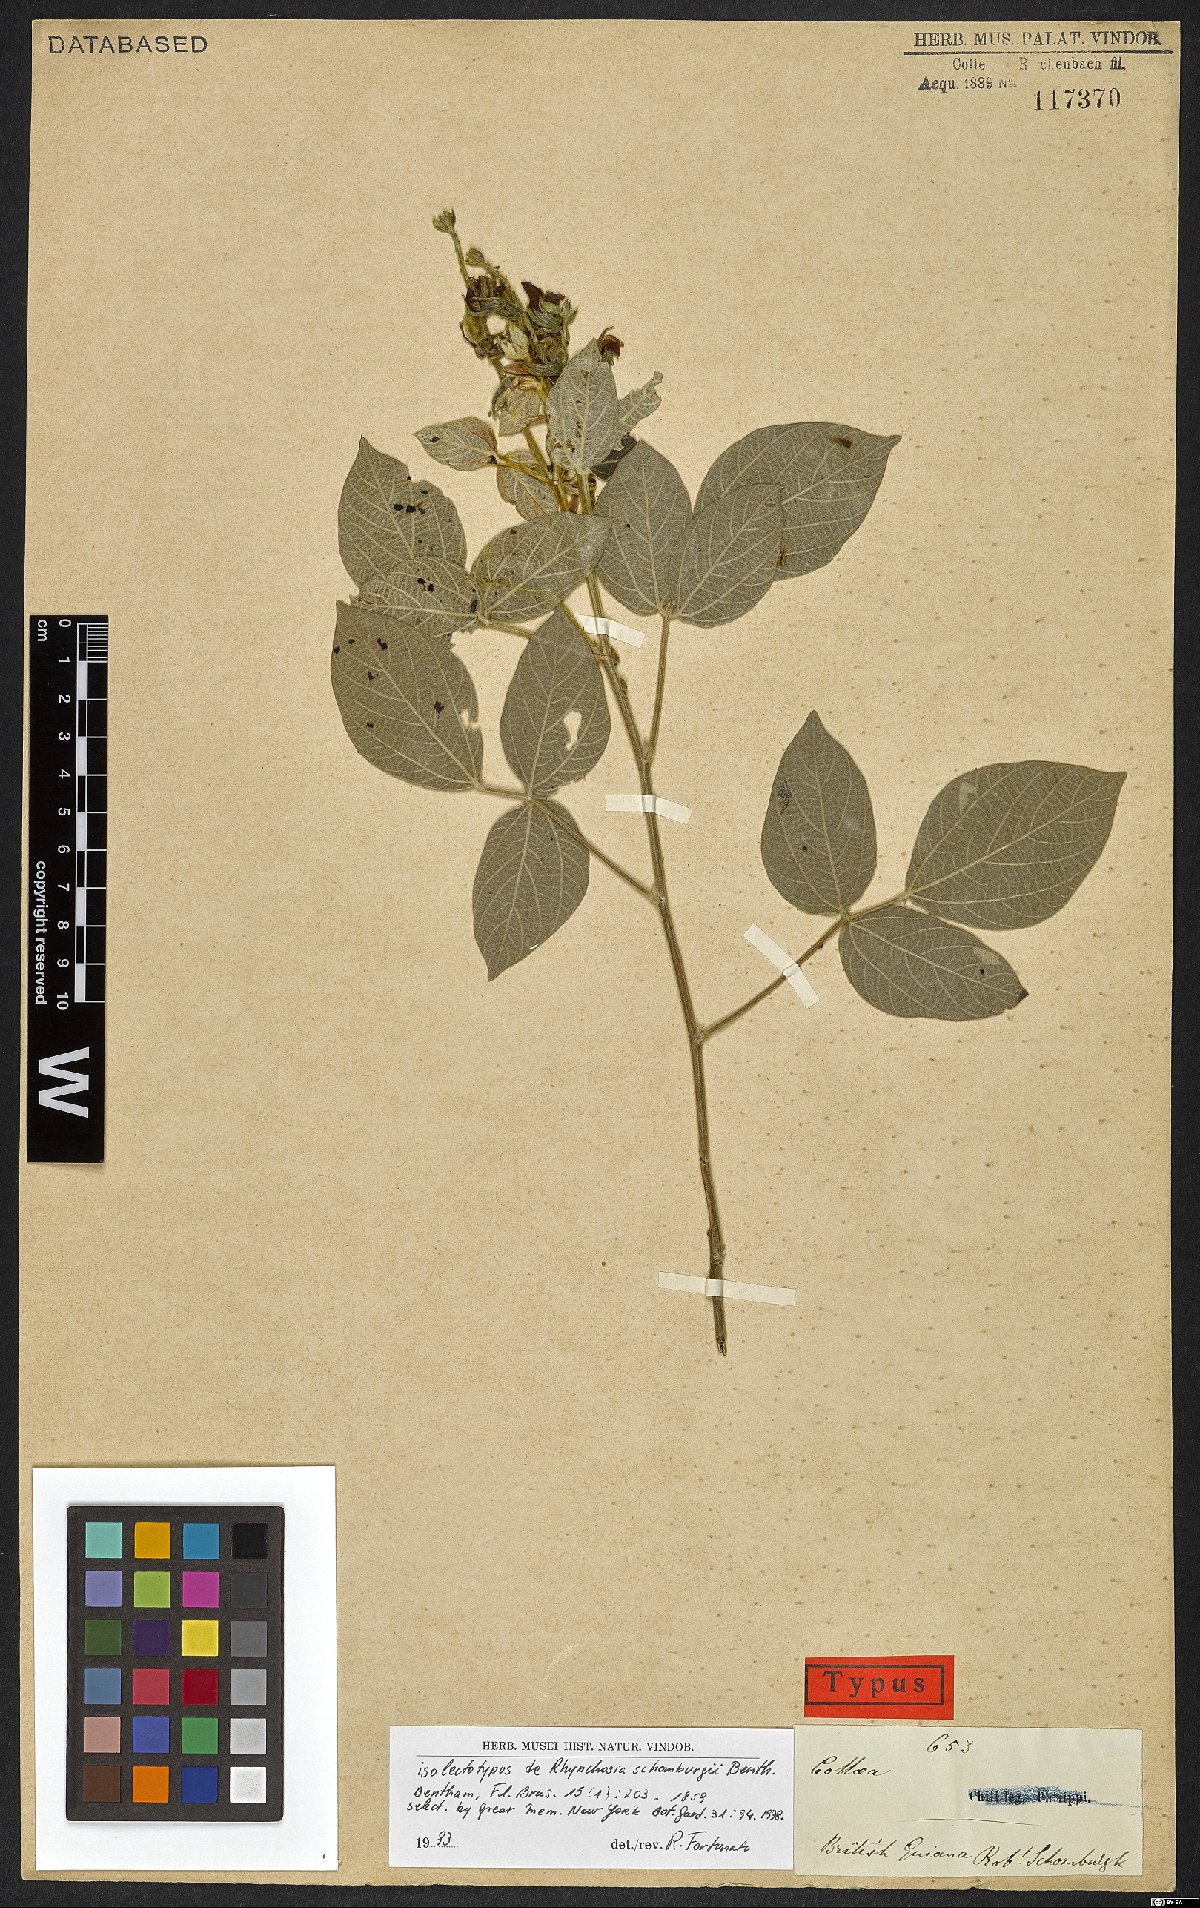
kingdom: Plantae
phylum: Tracheophyta
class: Magnoliopsida
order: Fabales
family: Fabaceae
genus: Rhynchosia
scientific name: Rhynchosia schomburgkii
